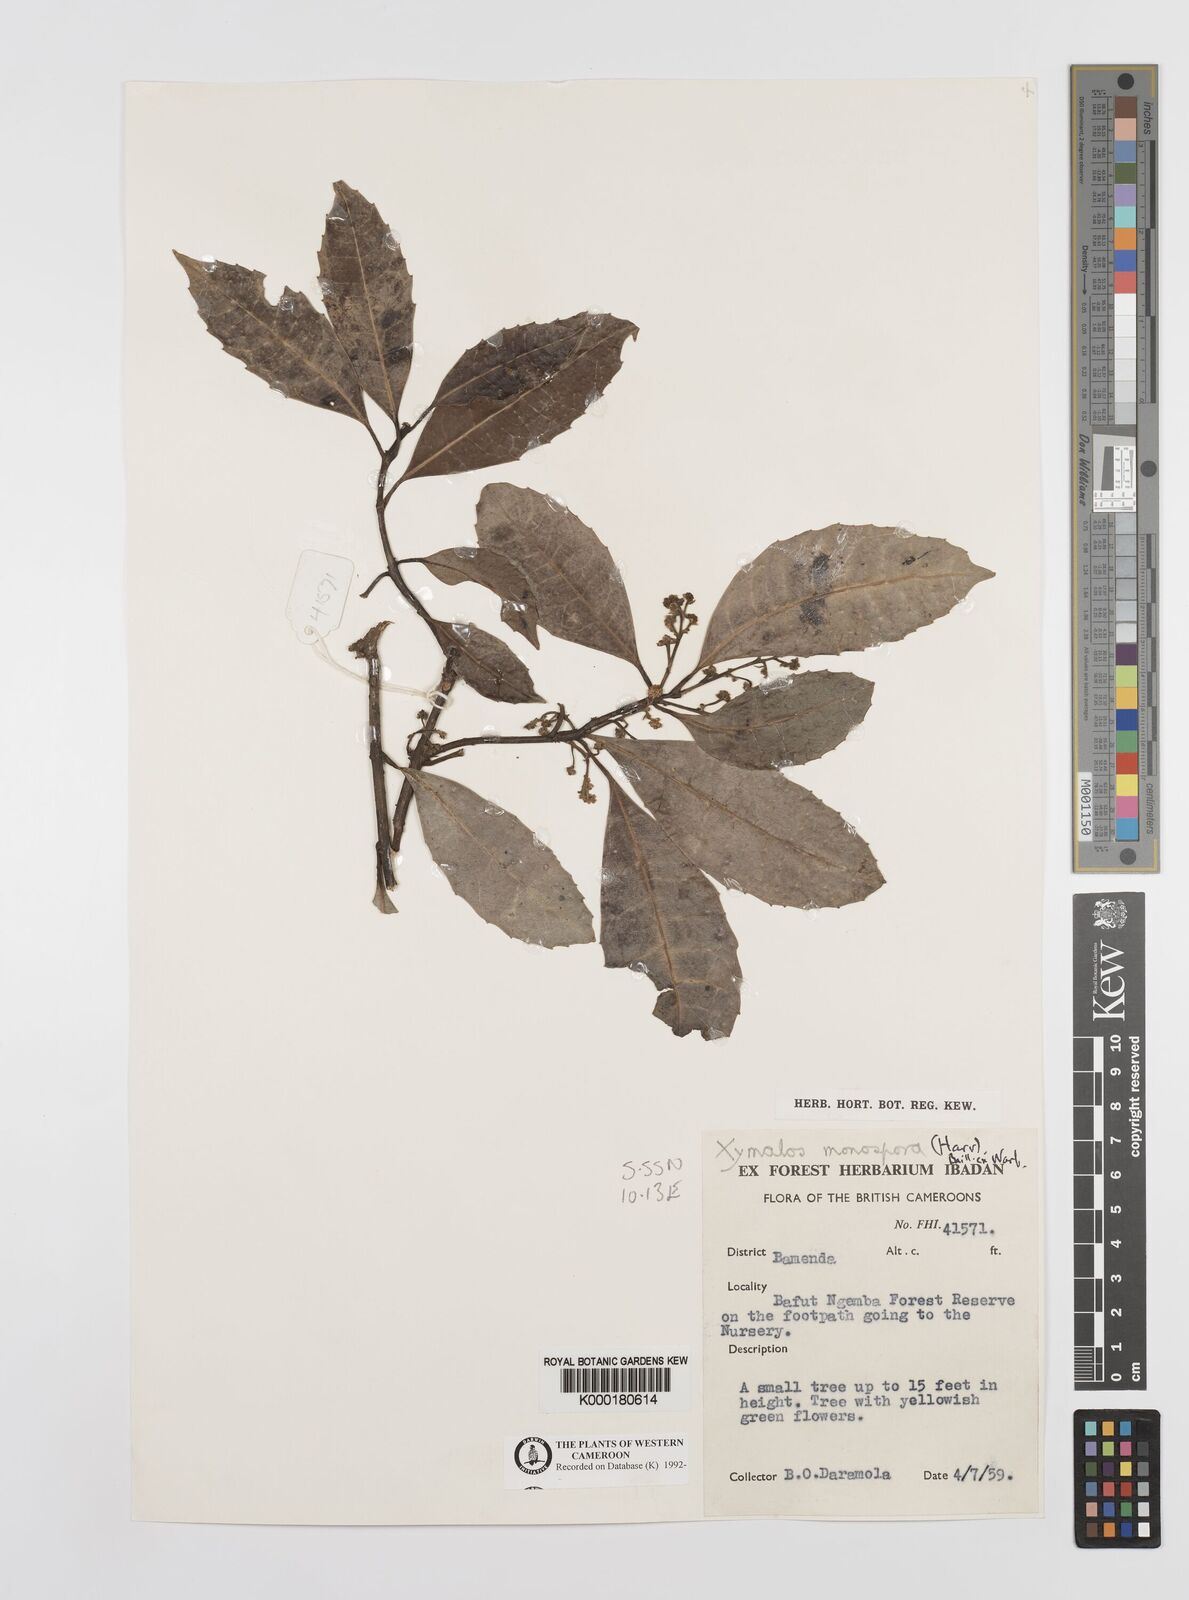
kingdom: Plantae
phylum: Tracheophyta
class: Magnoliopsida
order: Laurales
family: Monimiaceae
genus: Xymalos
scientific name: Xymalos
